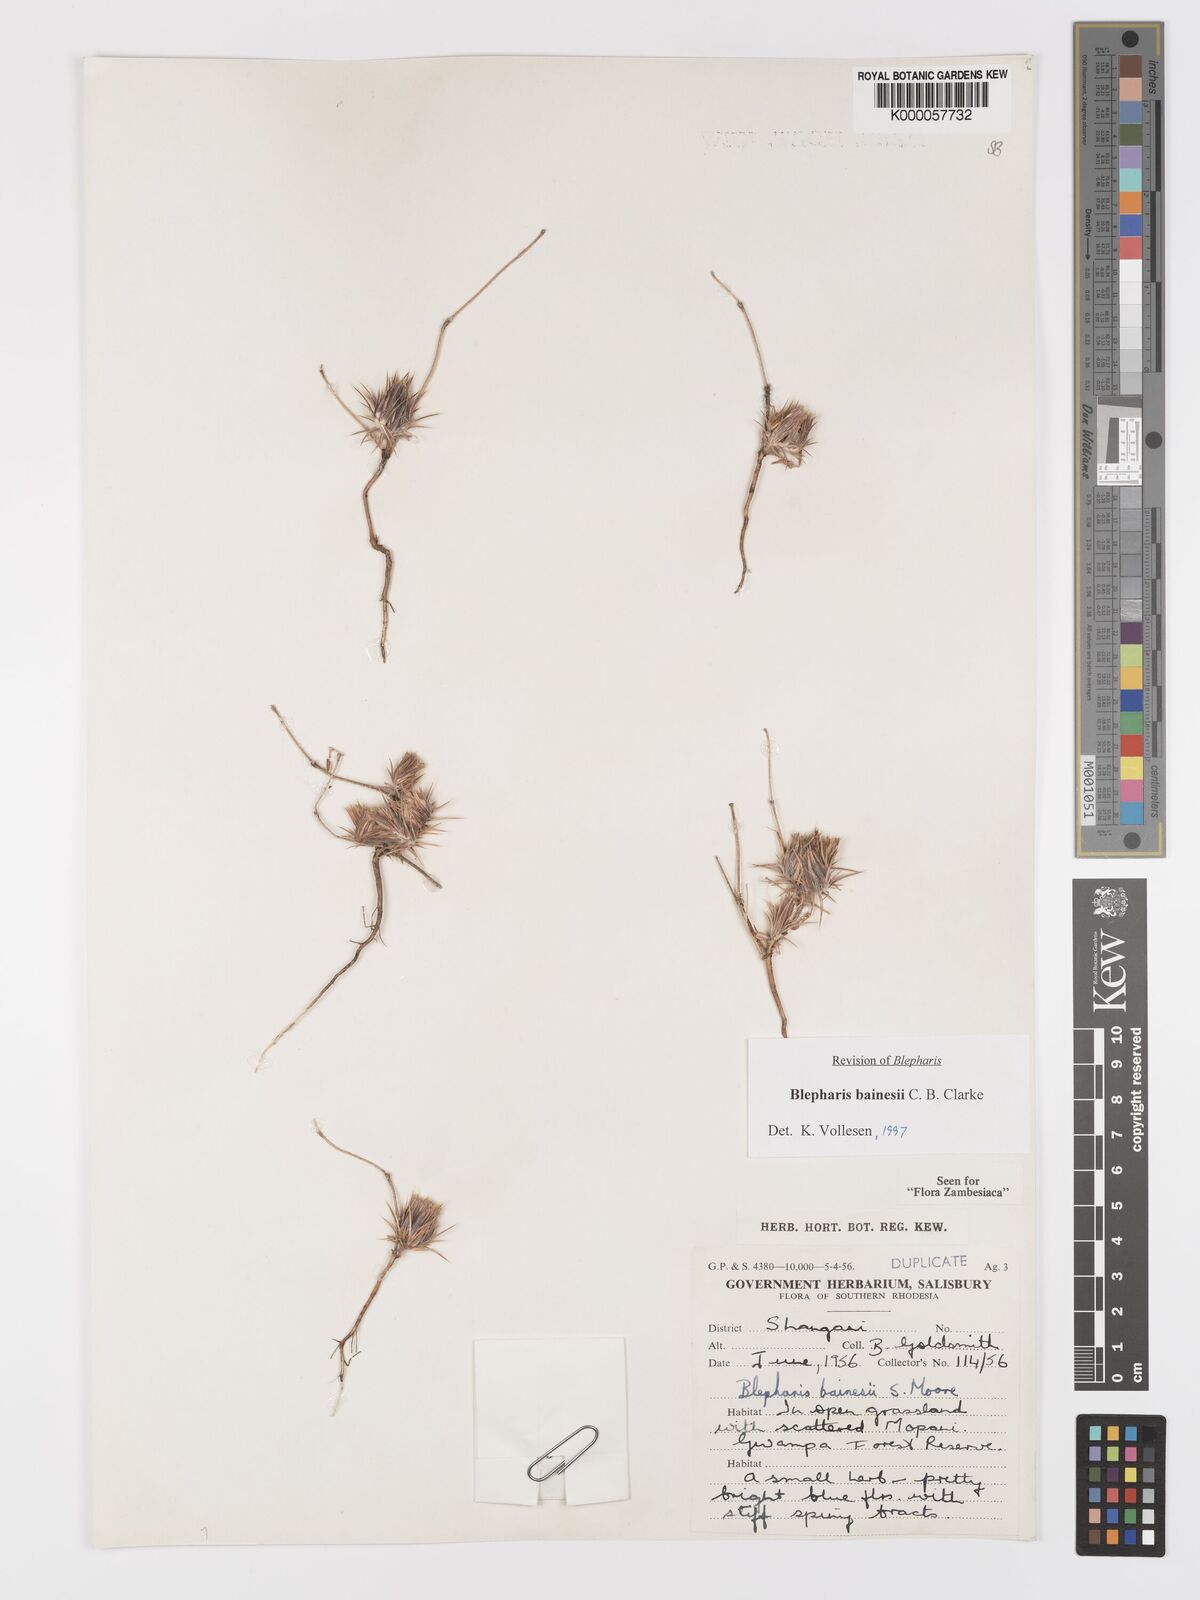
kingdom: Plantae
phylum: Tracheophyta
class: Magnoliopsida
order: Lamiales
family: Acanthaceae
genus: Blepharis
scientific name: Blepharis bainesii
